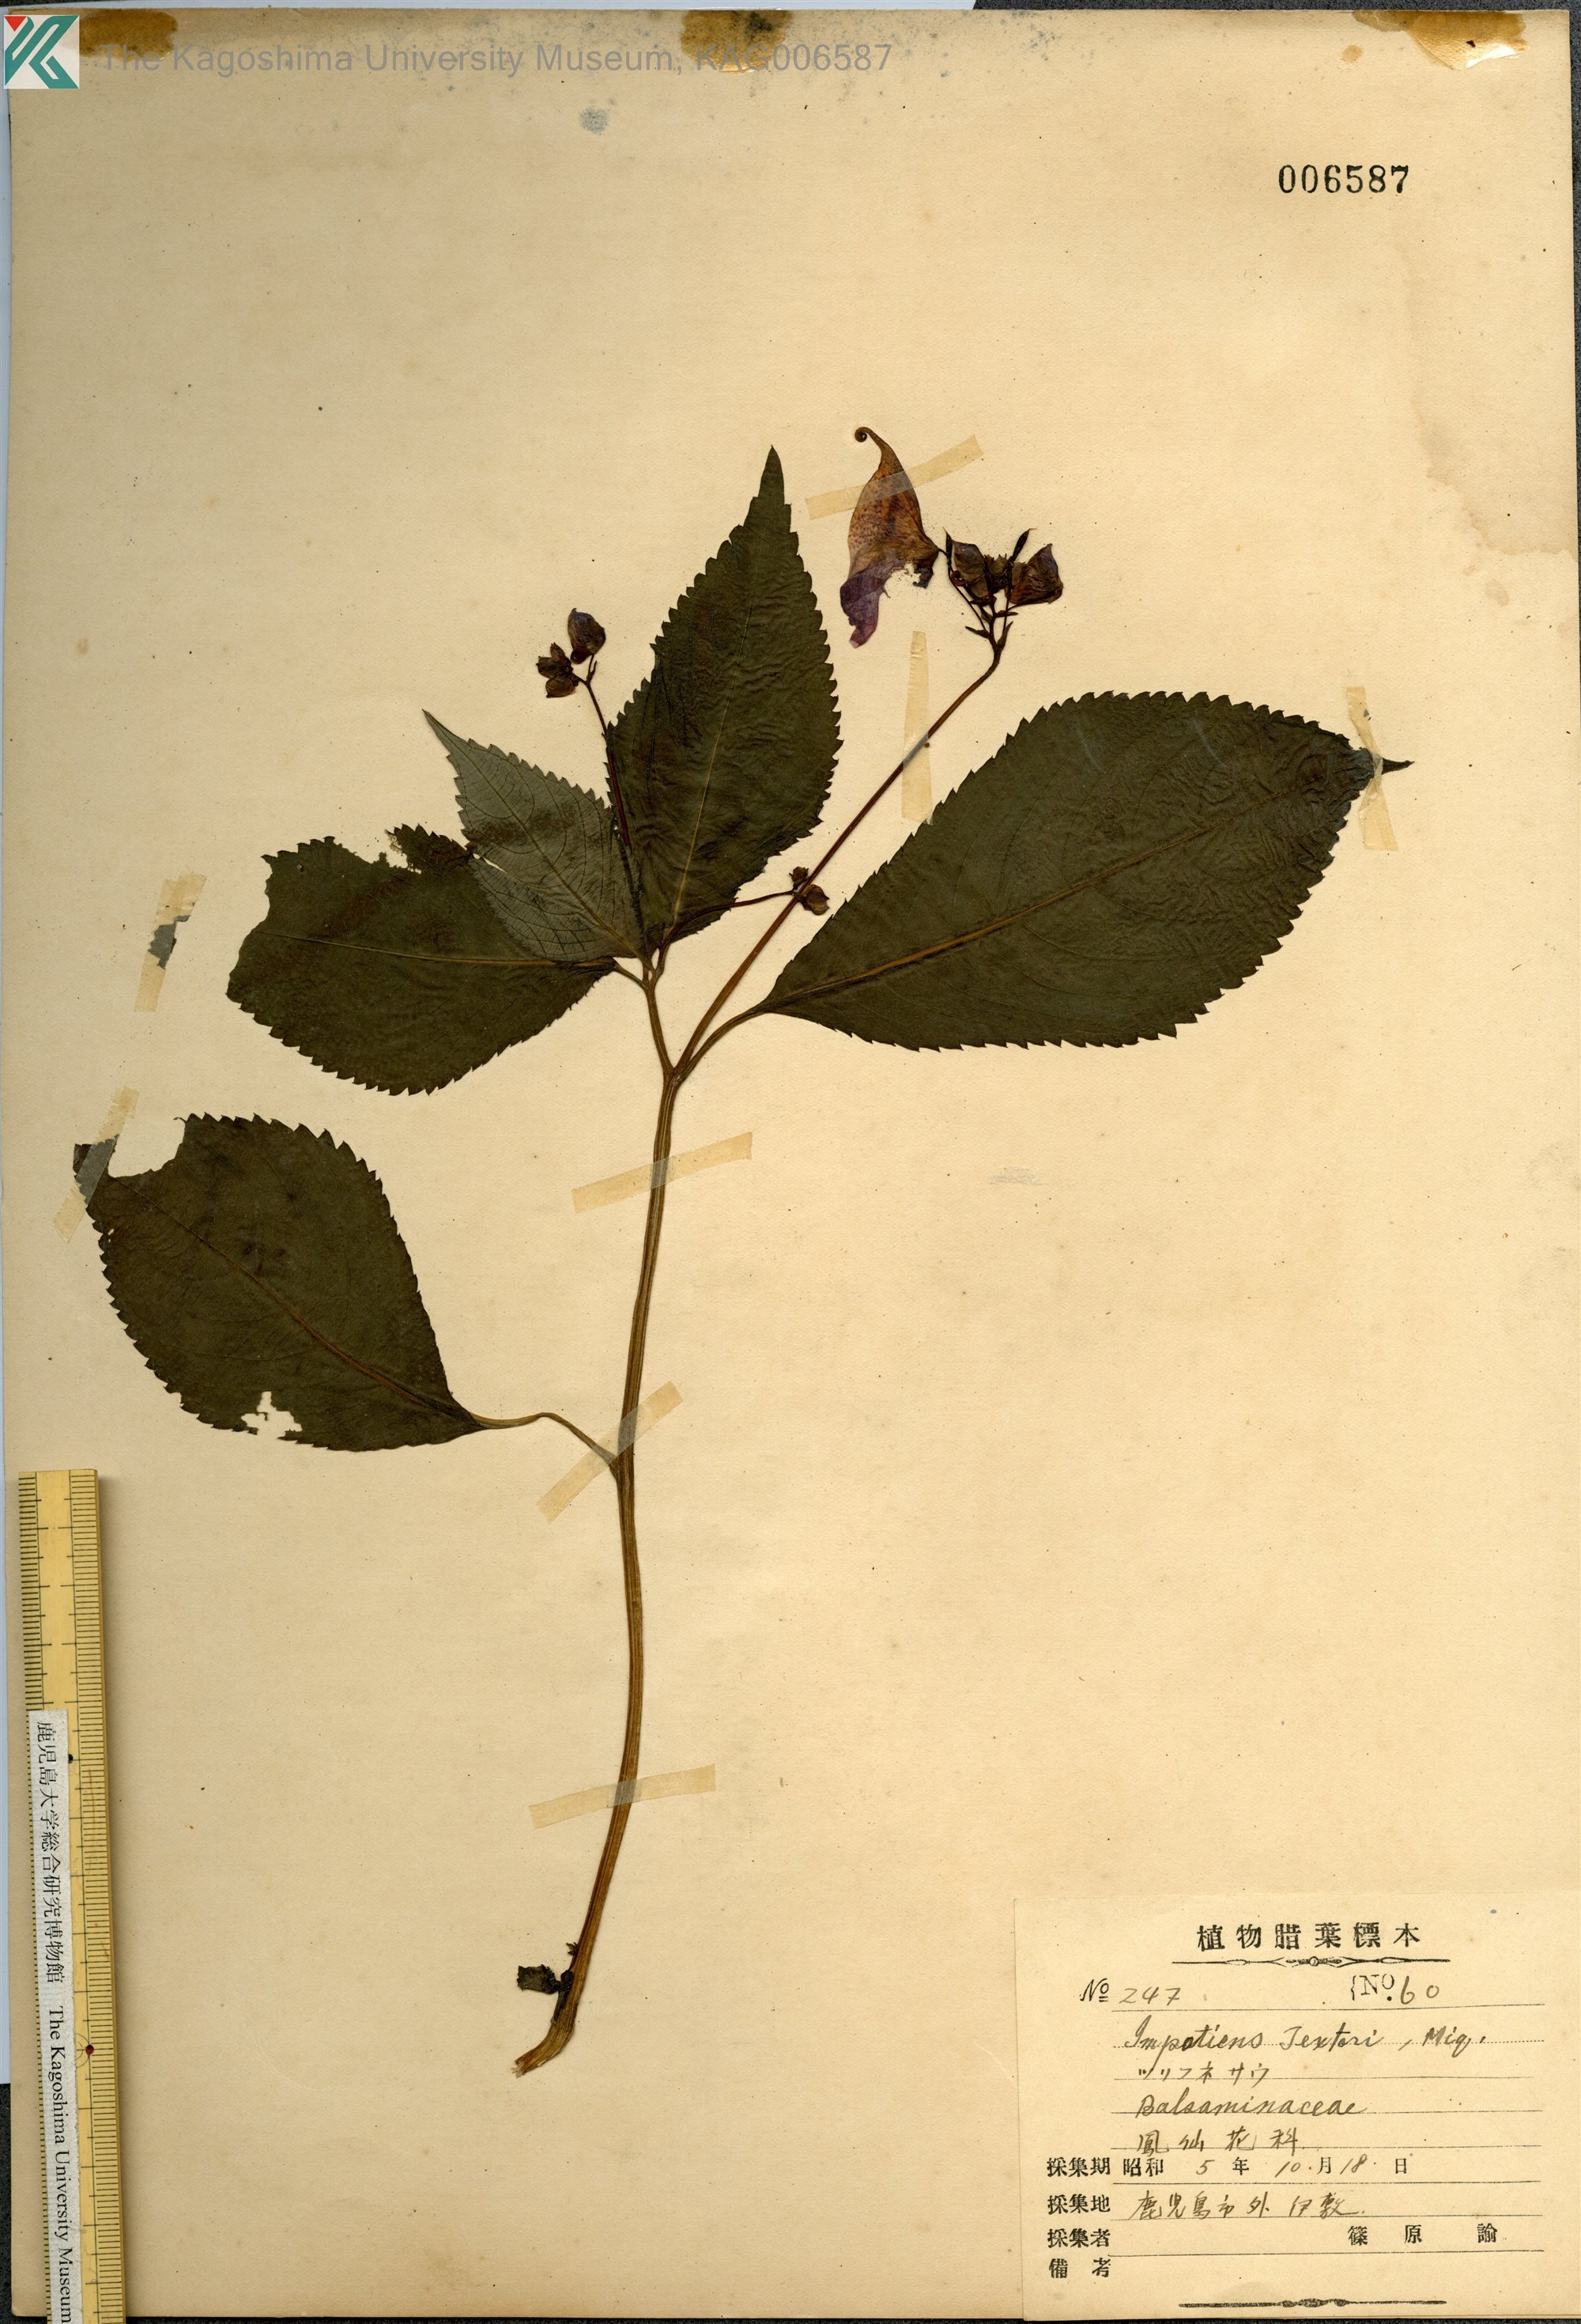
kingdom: Plantae
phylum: Tracheophyta
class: Magnoliopsida
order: Ericales
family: Balsaminaceae
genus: Impatiens
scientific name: Impatiens textorii
